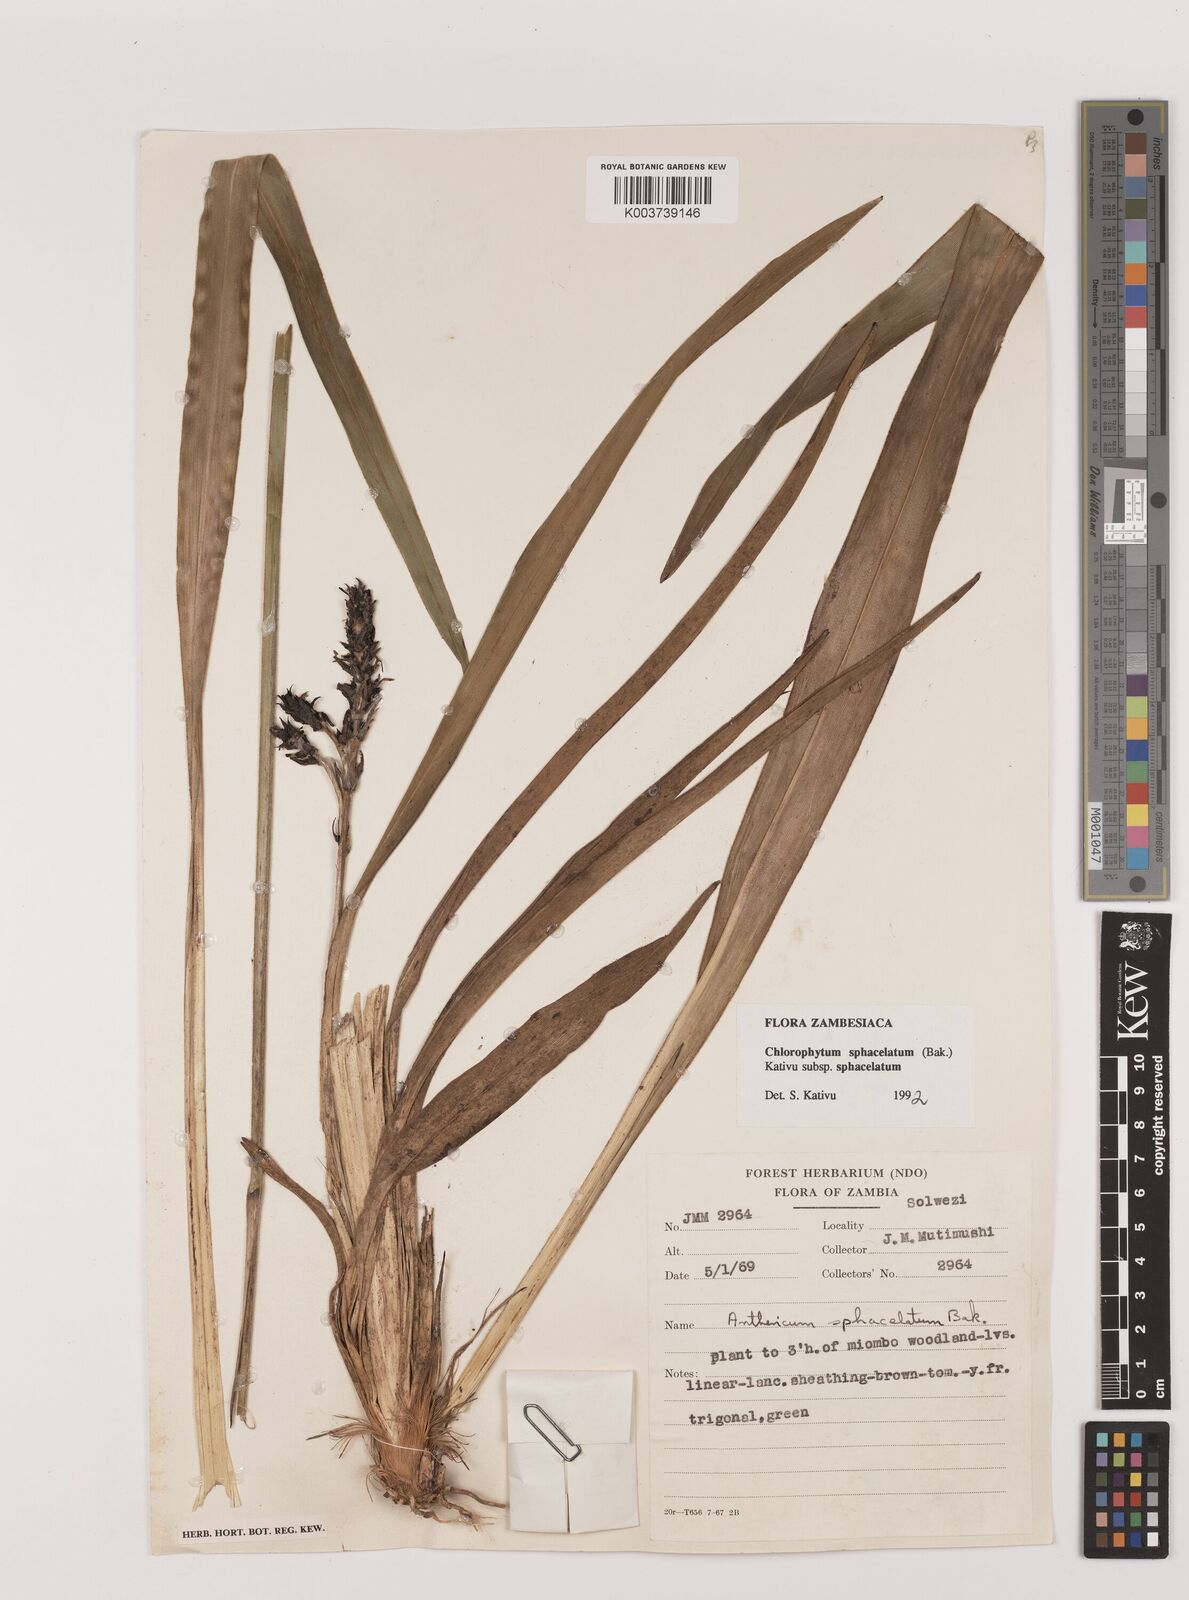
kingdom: Plantae
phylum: Tracheophyta
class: Liliopsida
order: Asparagales
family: Asparagaceae
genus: Chlorophytum
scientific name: Chlorophytum sphacelatum
